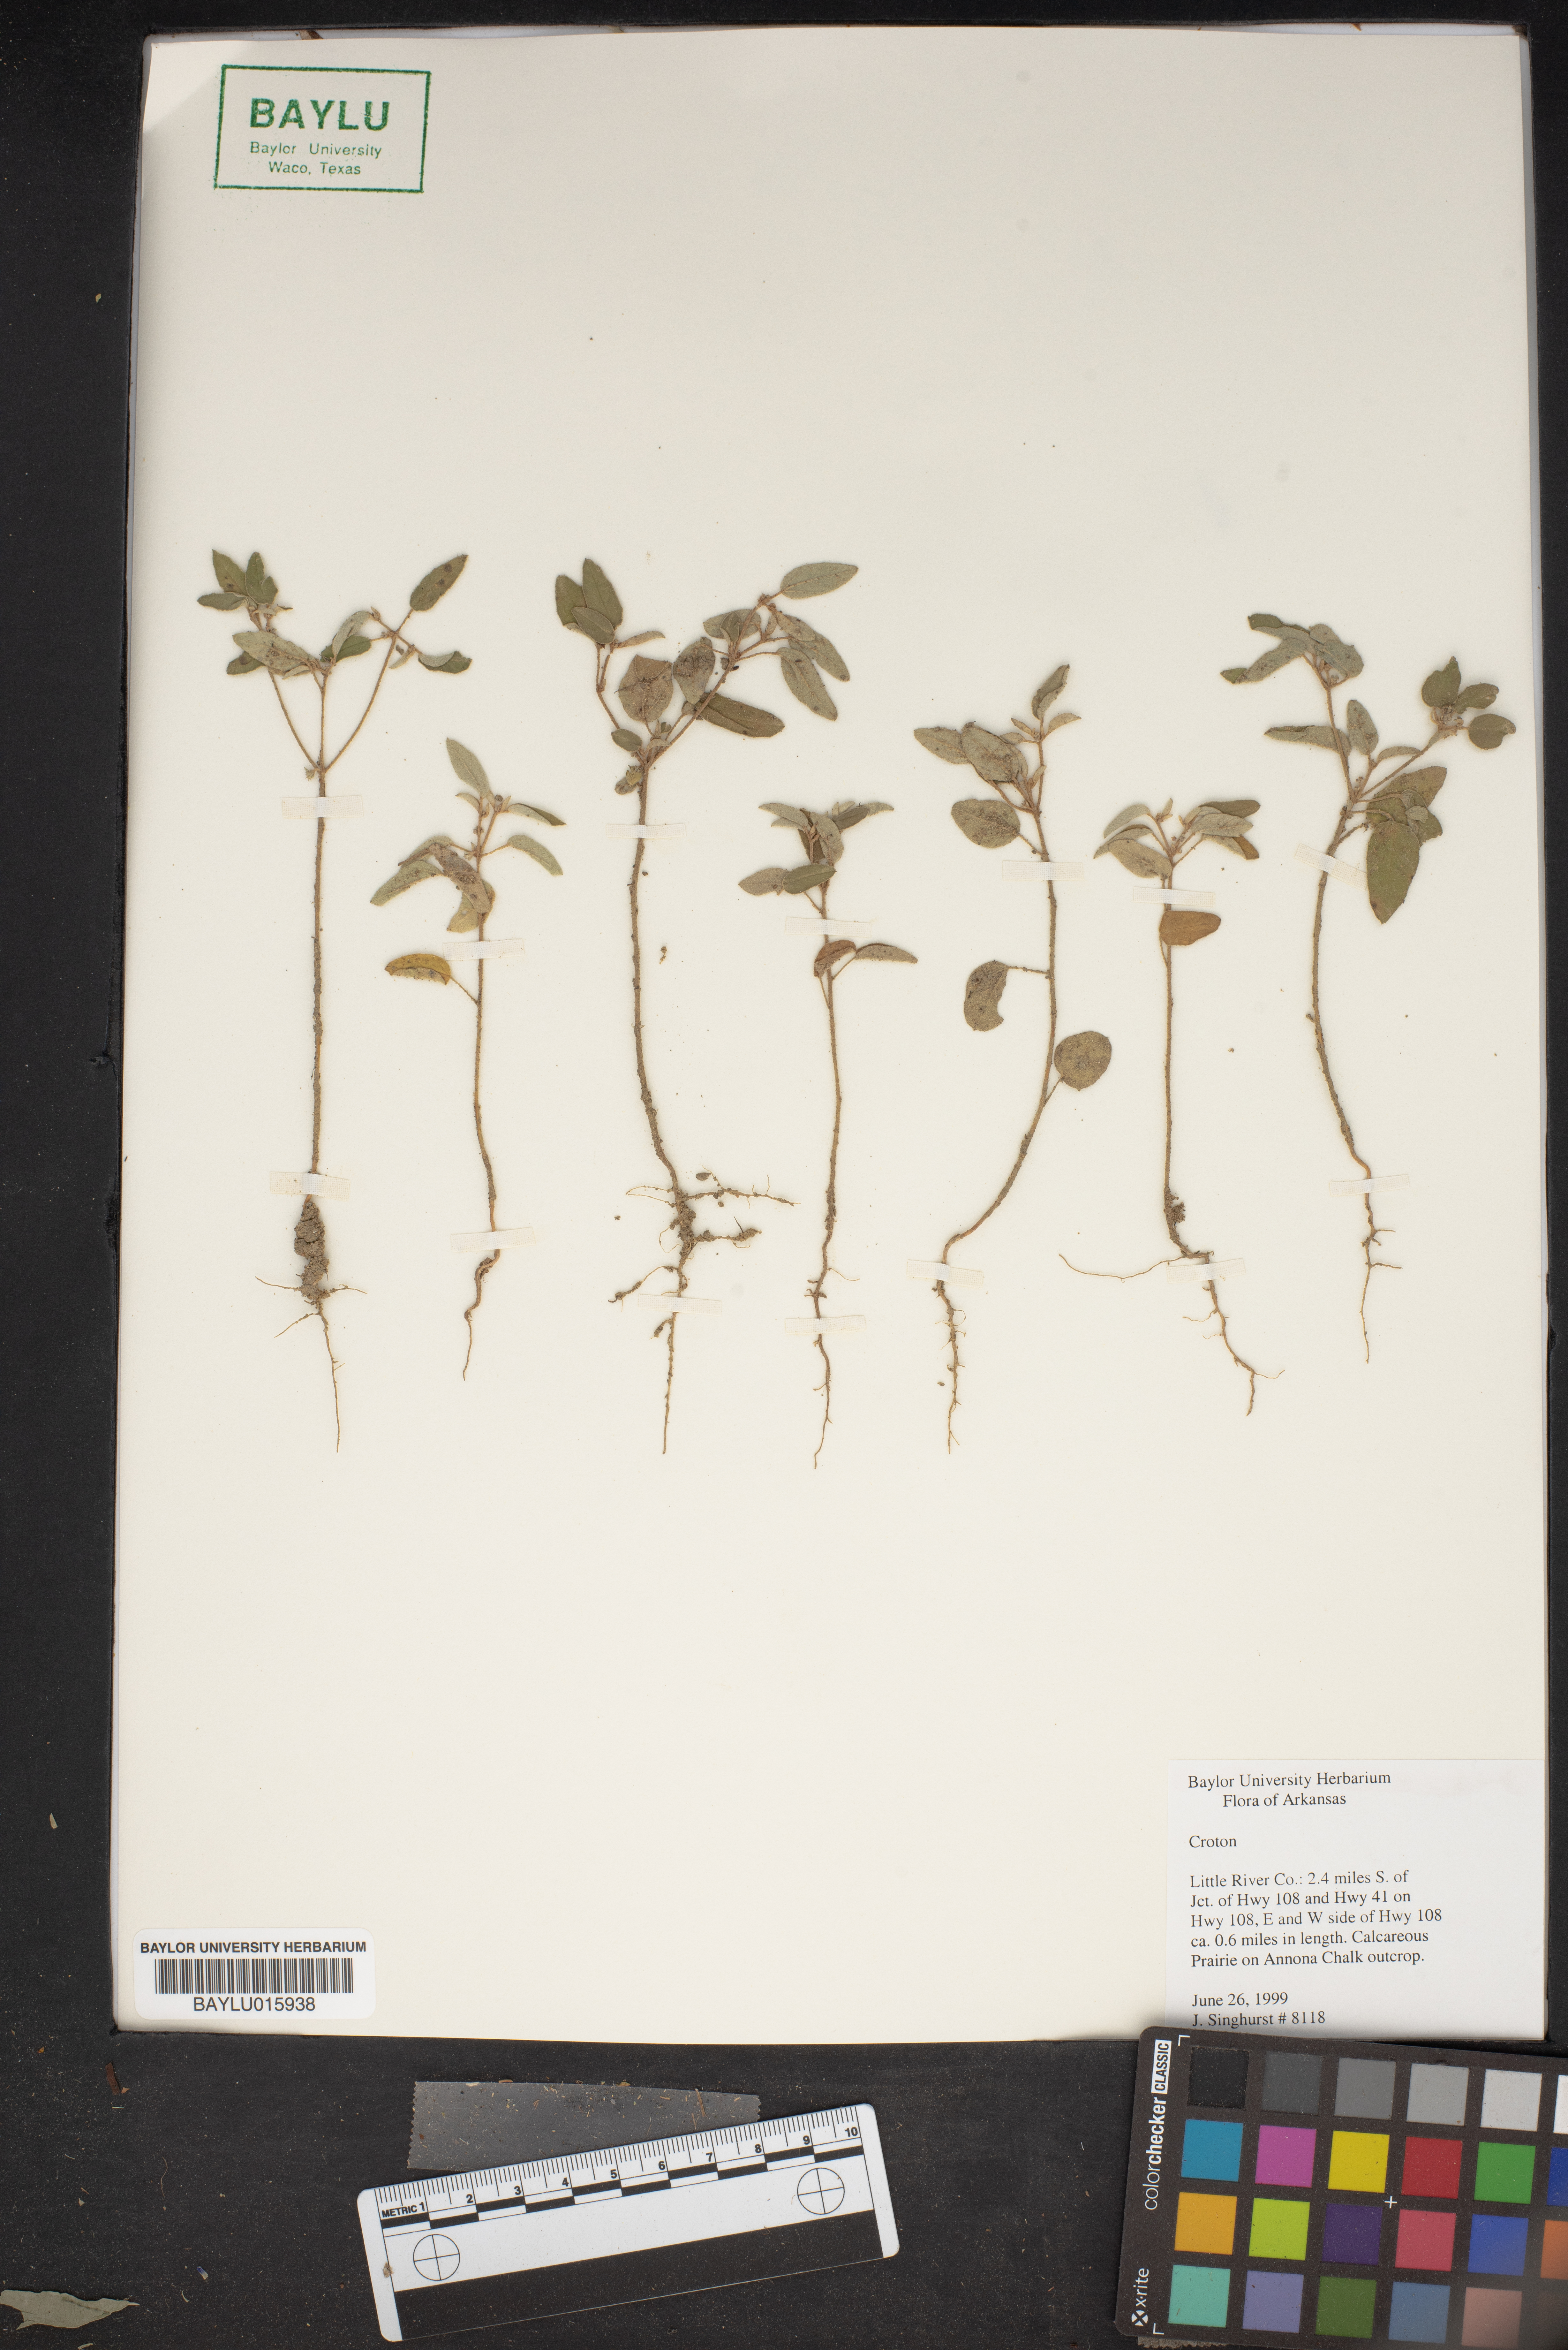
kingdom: Plantae
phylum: Tracheophyta
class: Magnoliopsida
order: Malpighiales
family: Euphorbiaceae
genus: Croton
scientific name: Croton
